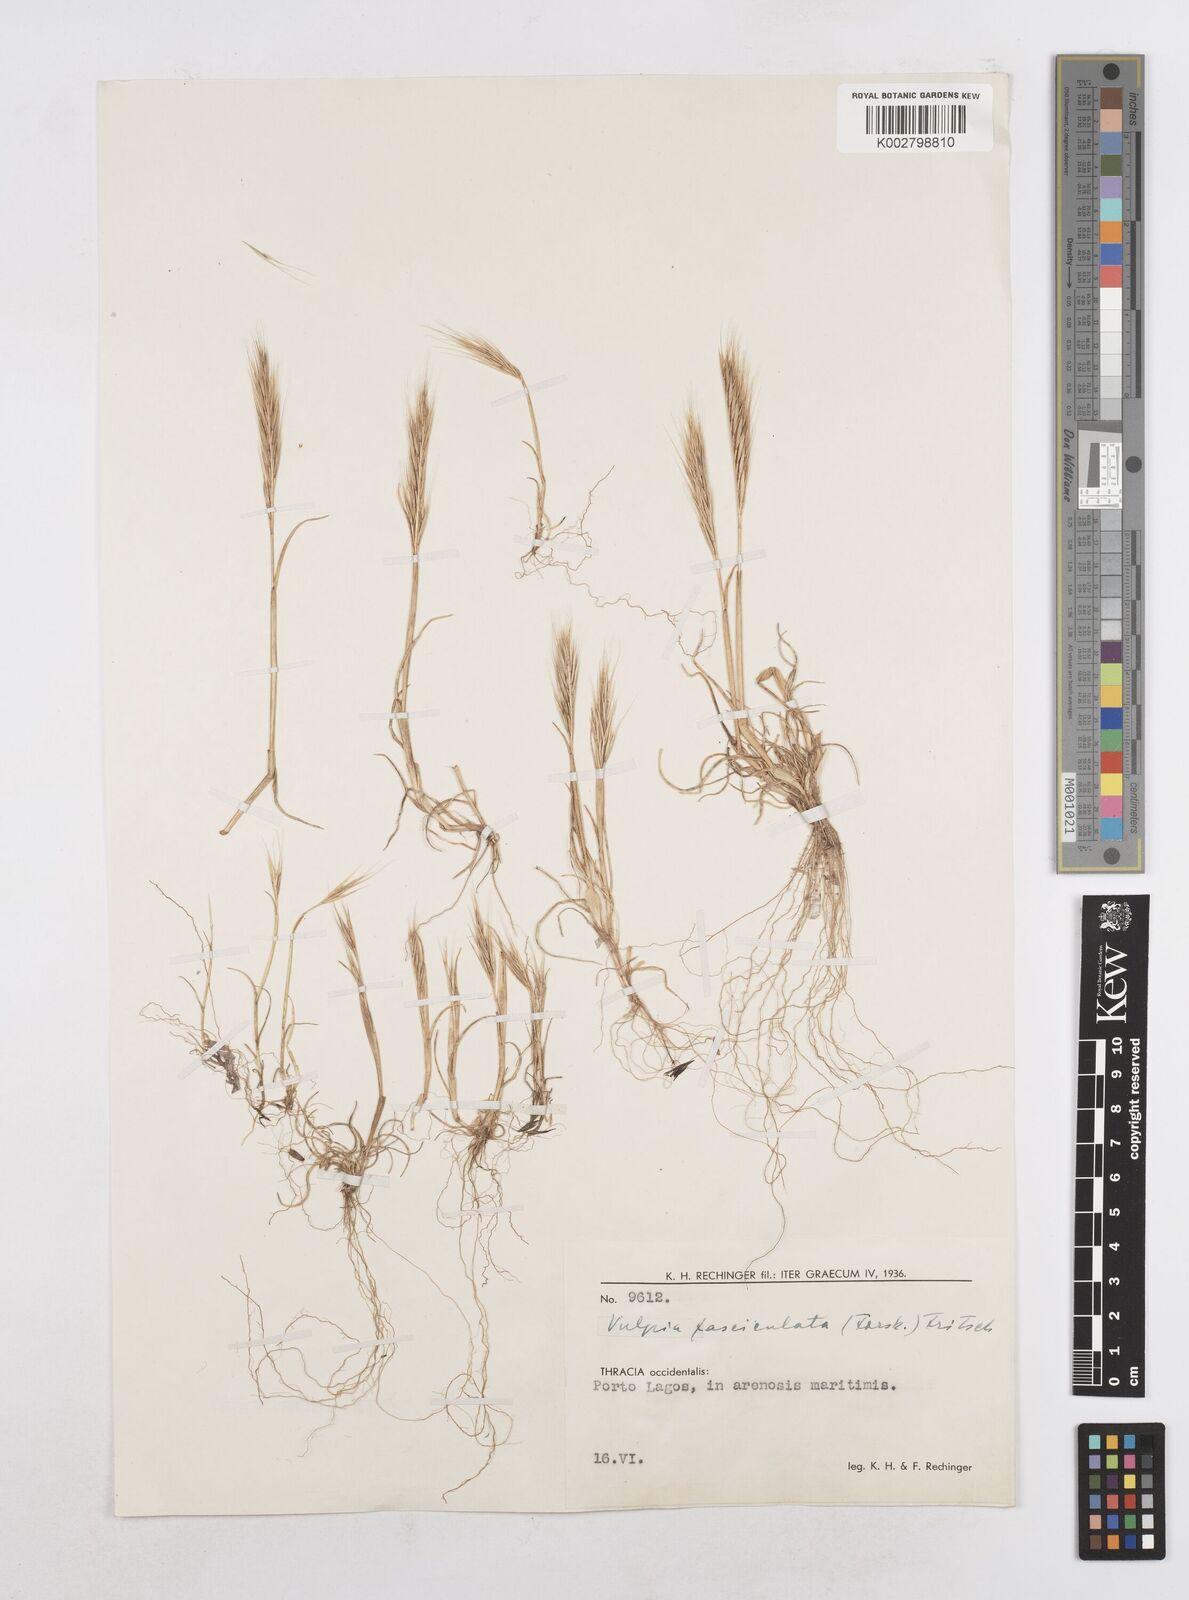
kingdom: Plantae
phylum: Tracheophyta
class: Liliopsida
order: Poales
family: Poaceae
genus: Festuca
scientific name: Festuca fasciculata
